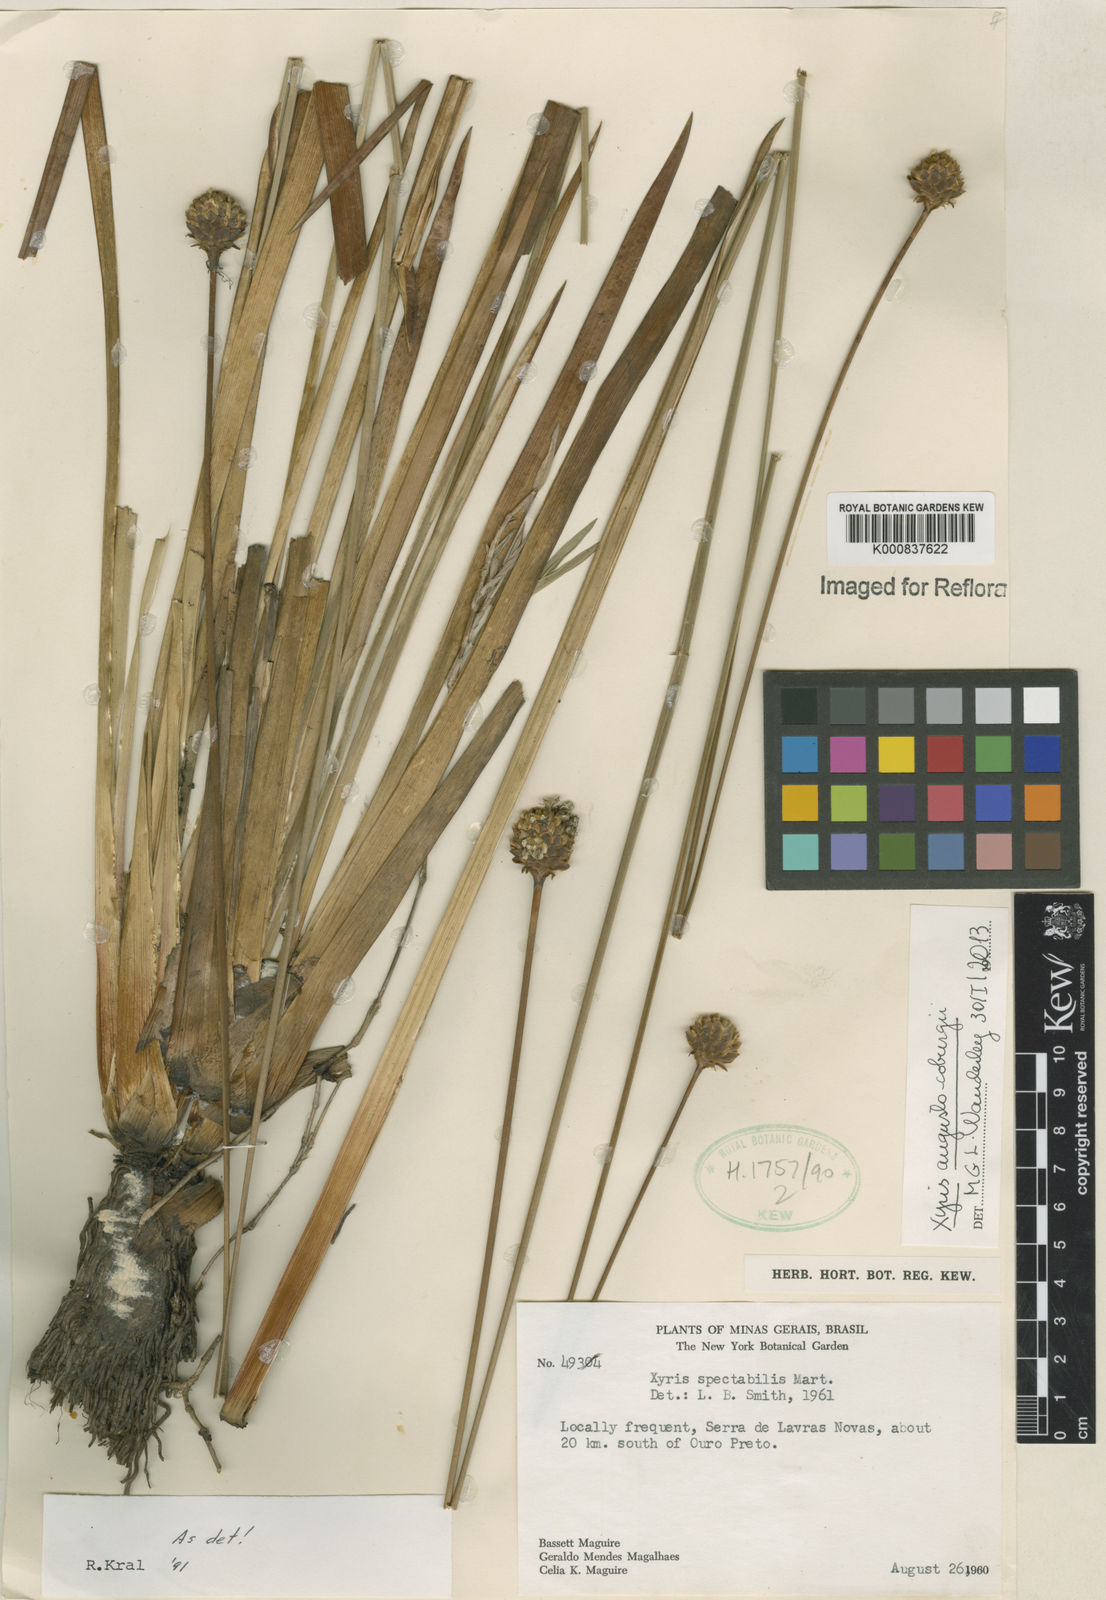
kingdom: Plantae
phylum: Tracheophyta
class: Liliopsida
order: Poales
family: Xyridaceae
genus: Xyris
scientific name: Xyris augusto-coburgii
